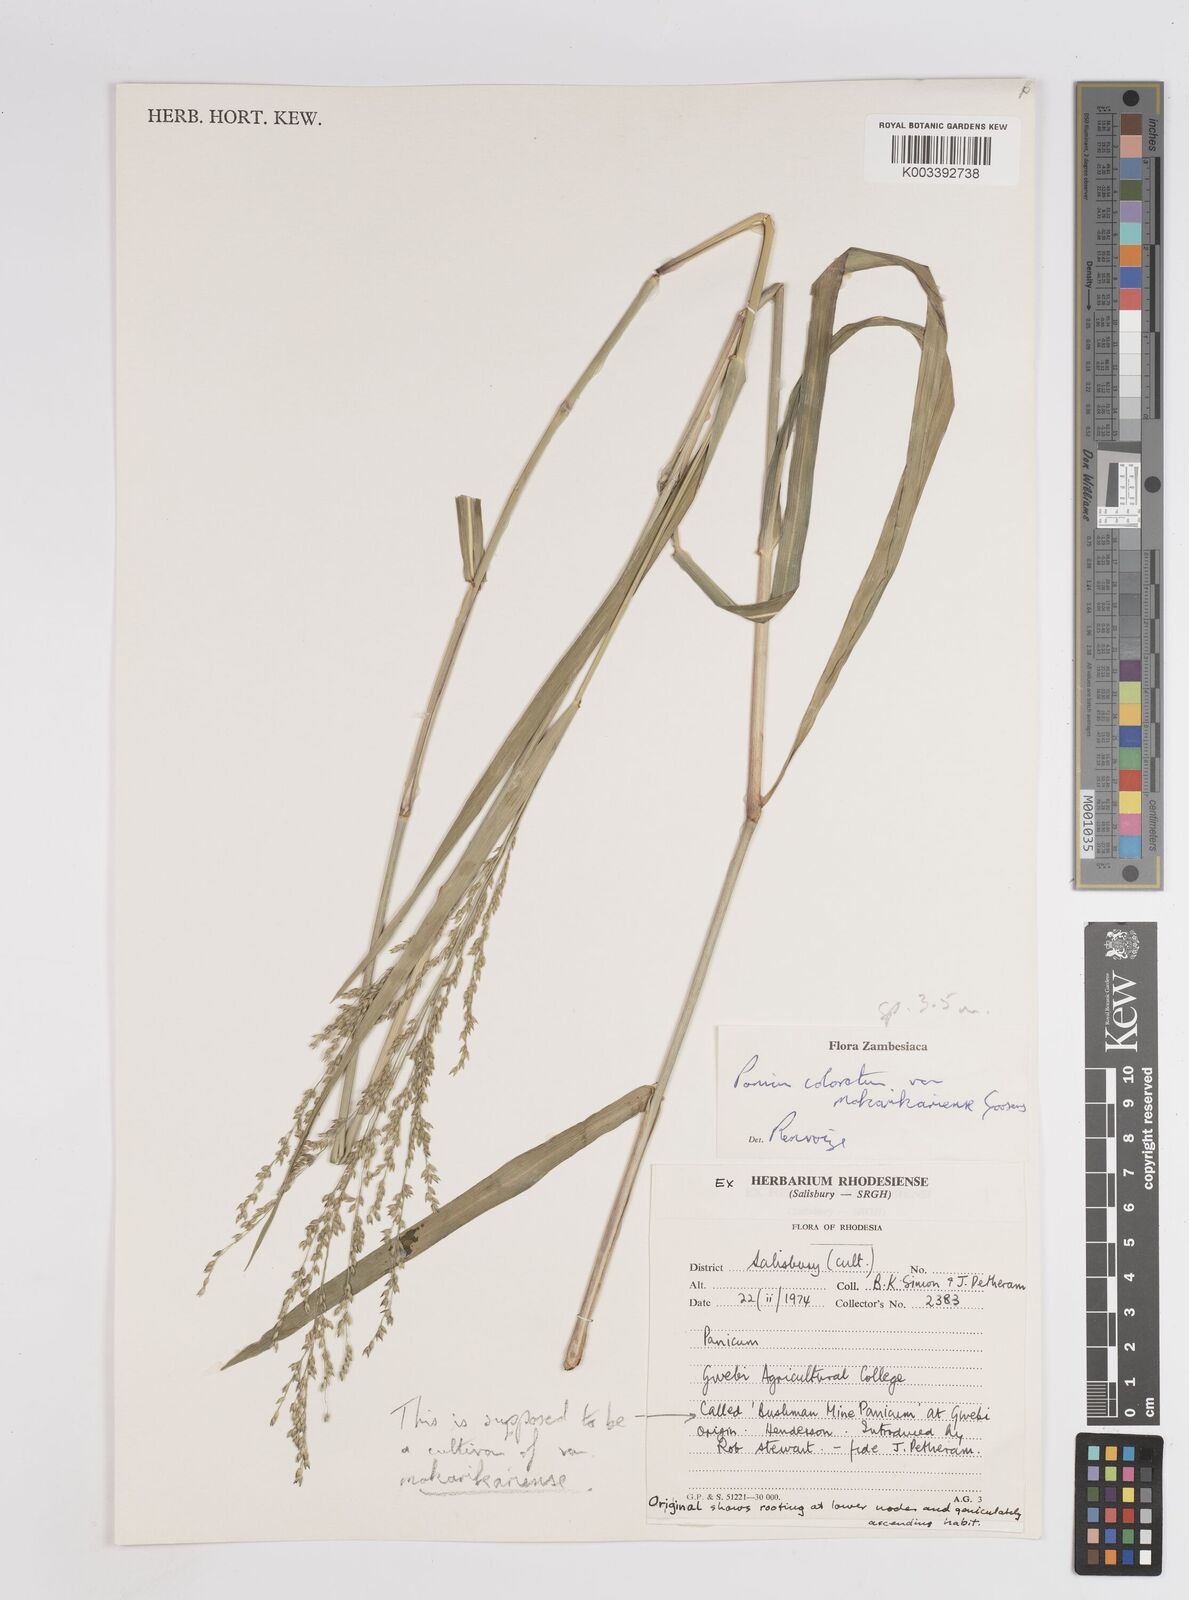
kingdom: Plantae
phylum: Tracheophyta
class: Liliopsida
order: Poales
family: Poaceae
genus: Panicum
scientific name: Panicum coloratum
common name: Kleingrass
